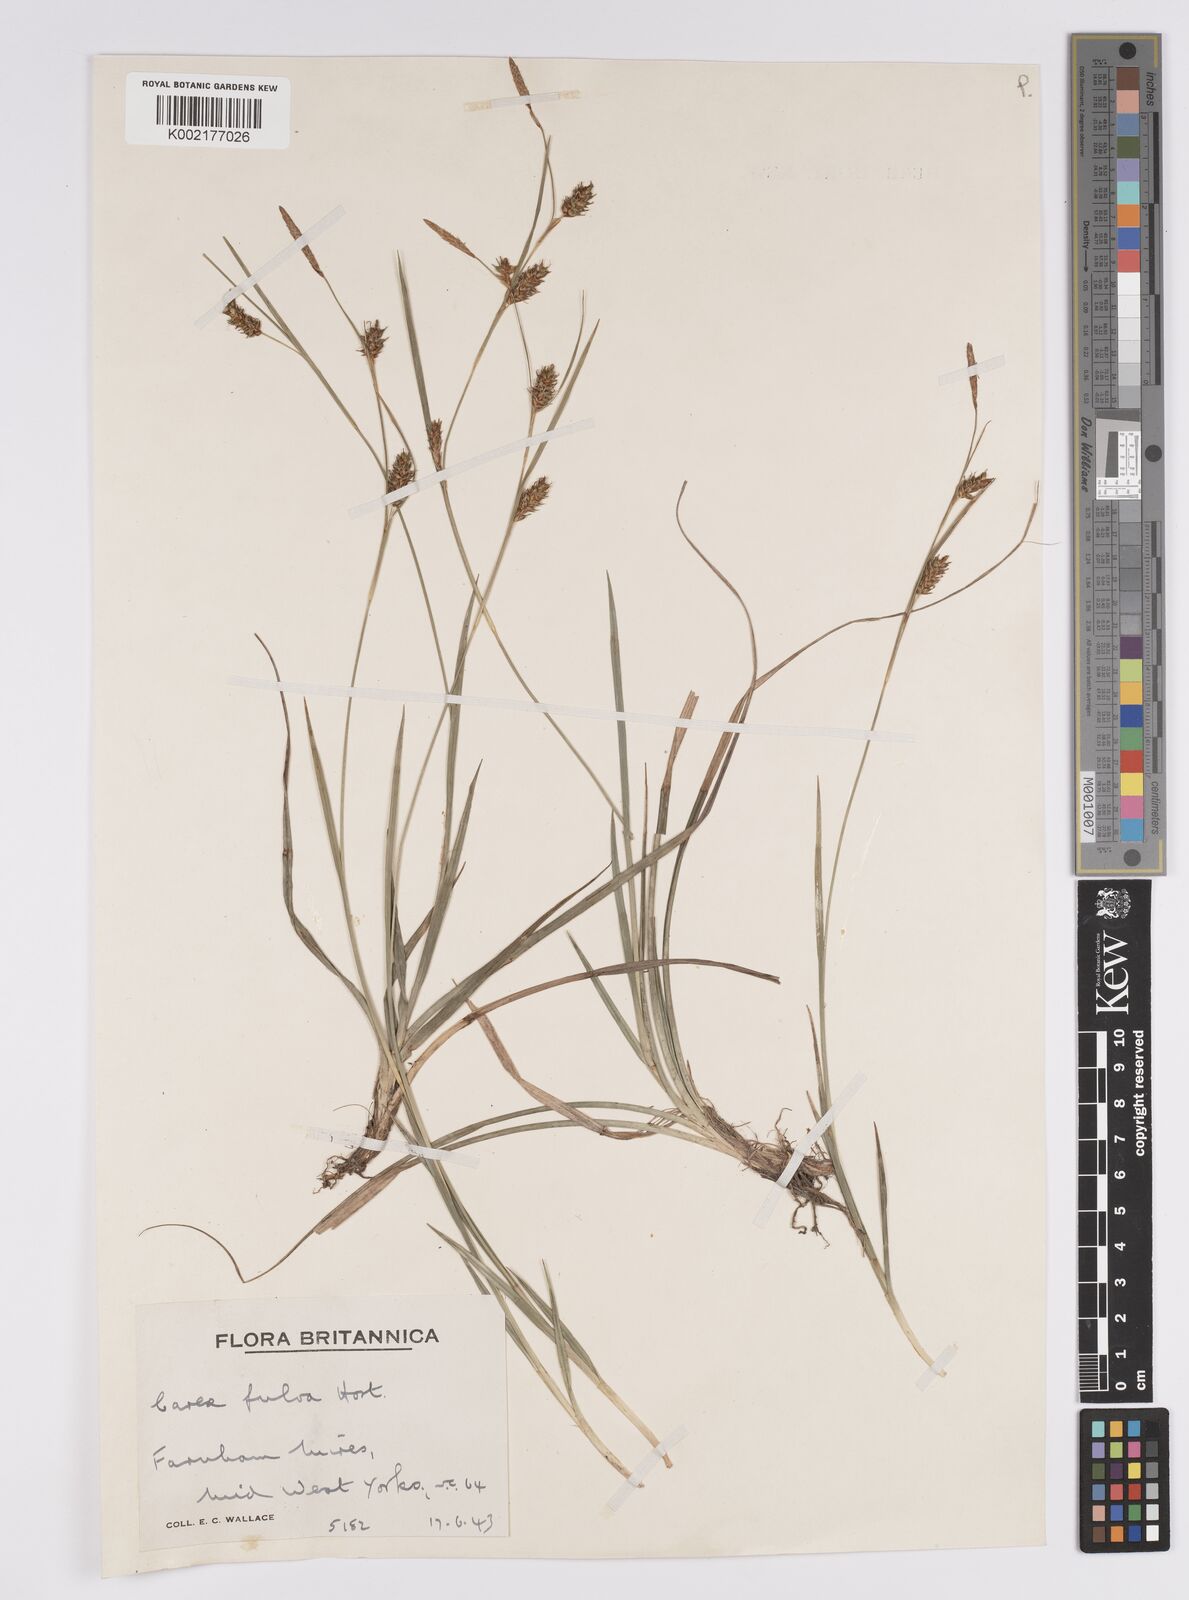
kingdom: Plantae
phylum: Tracheophyta
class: Liliopsida
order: Poales
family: Cyperaceae
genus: Carex
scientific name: Carex hostiana
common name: Tawny sedge
